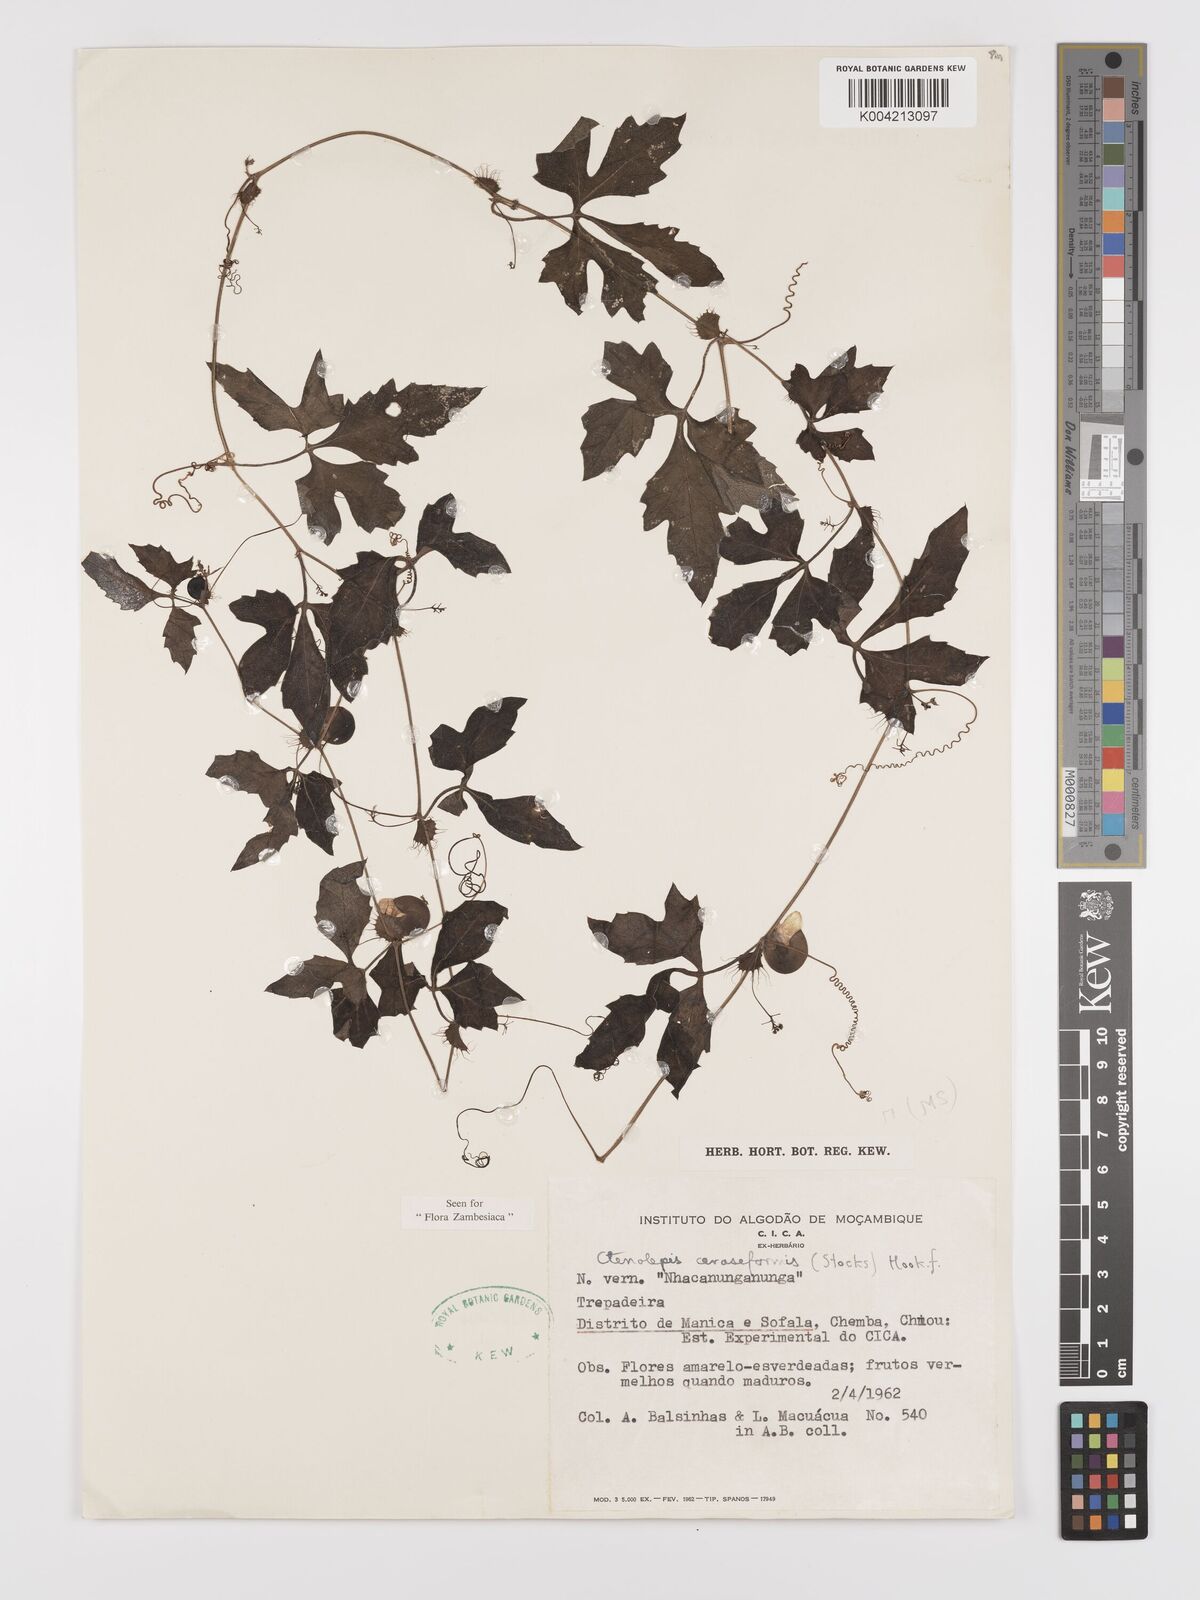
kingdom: Plantae
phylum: Tracheophyta
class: Magnoliopsida
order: Cucurbitales
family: Cucurbitaceae
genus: Blastania
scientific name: Blastania cerasiformis
